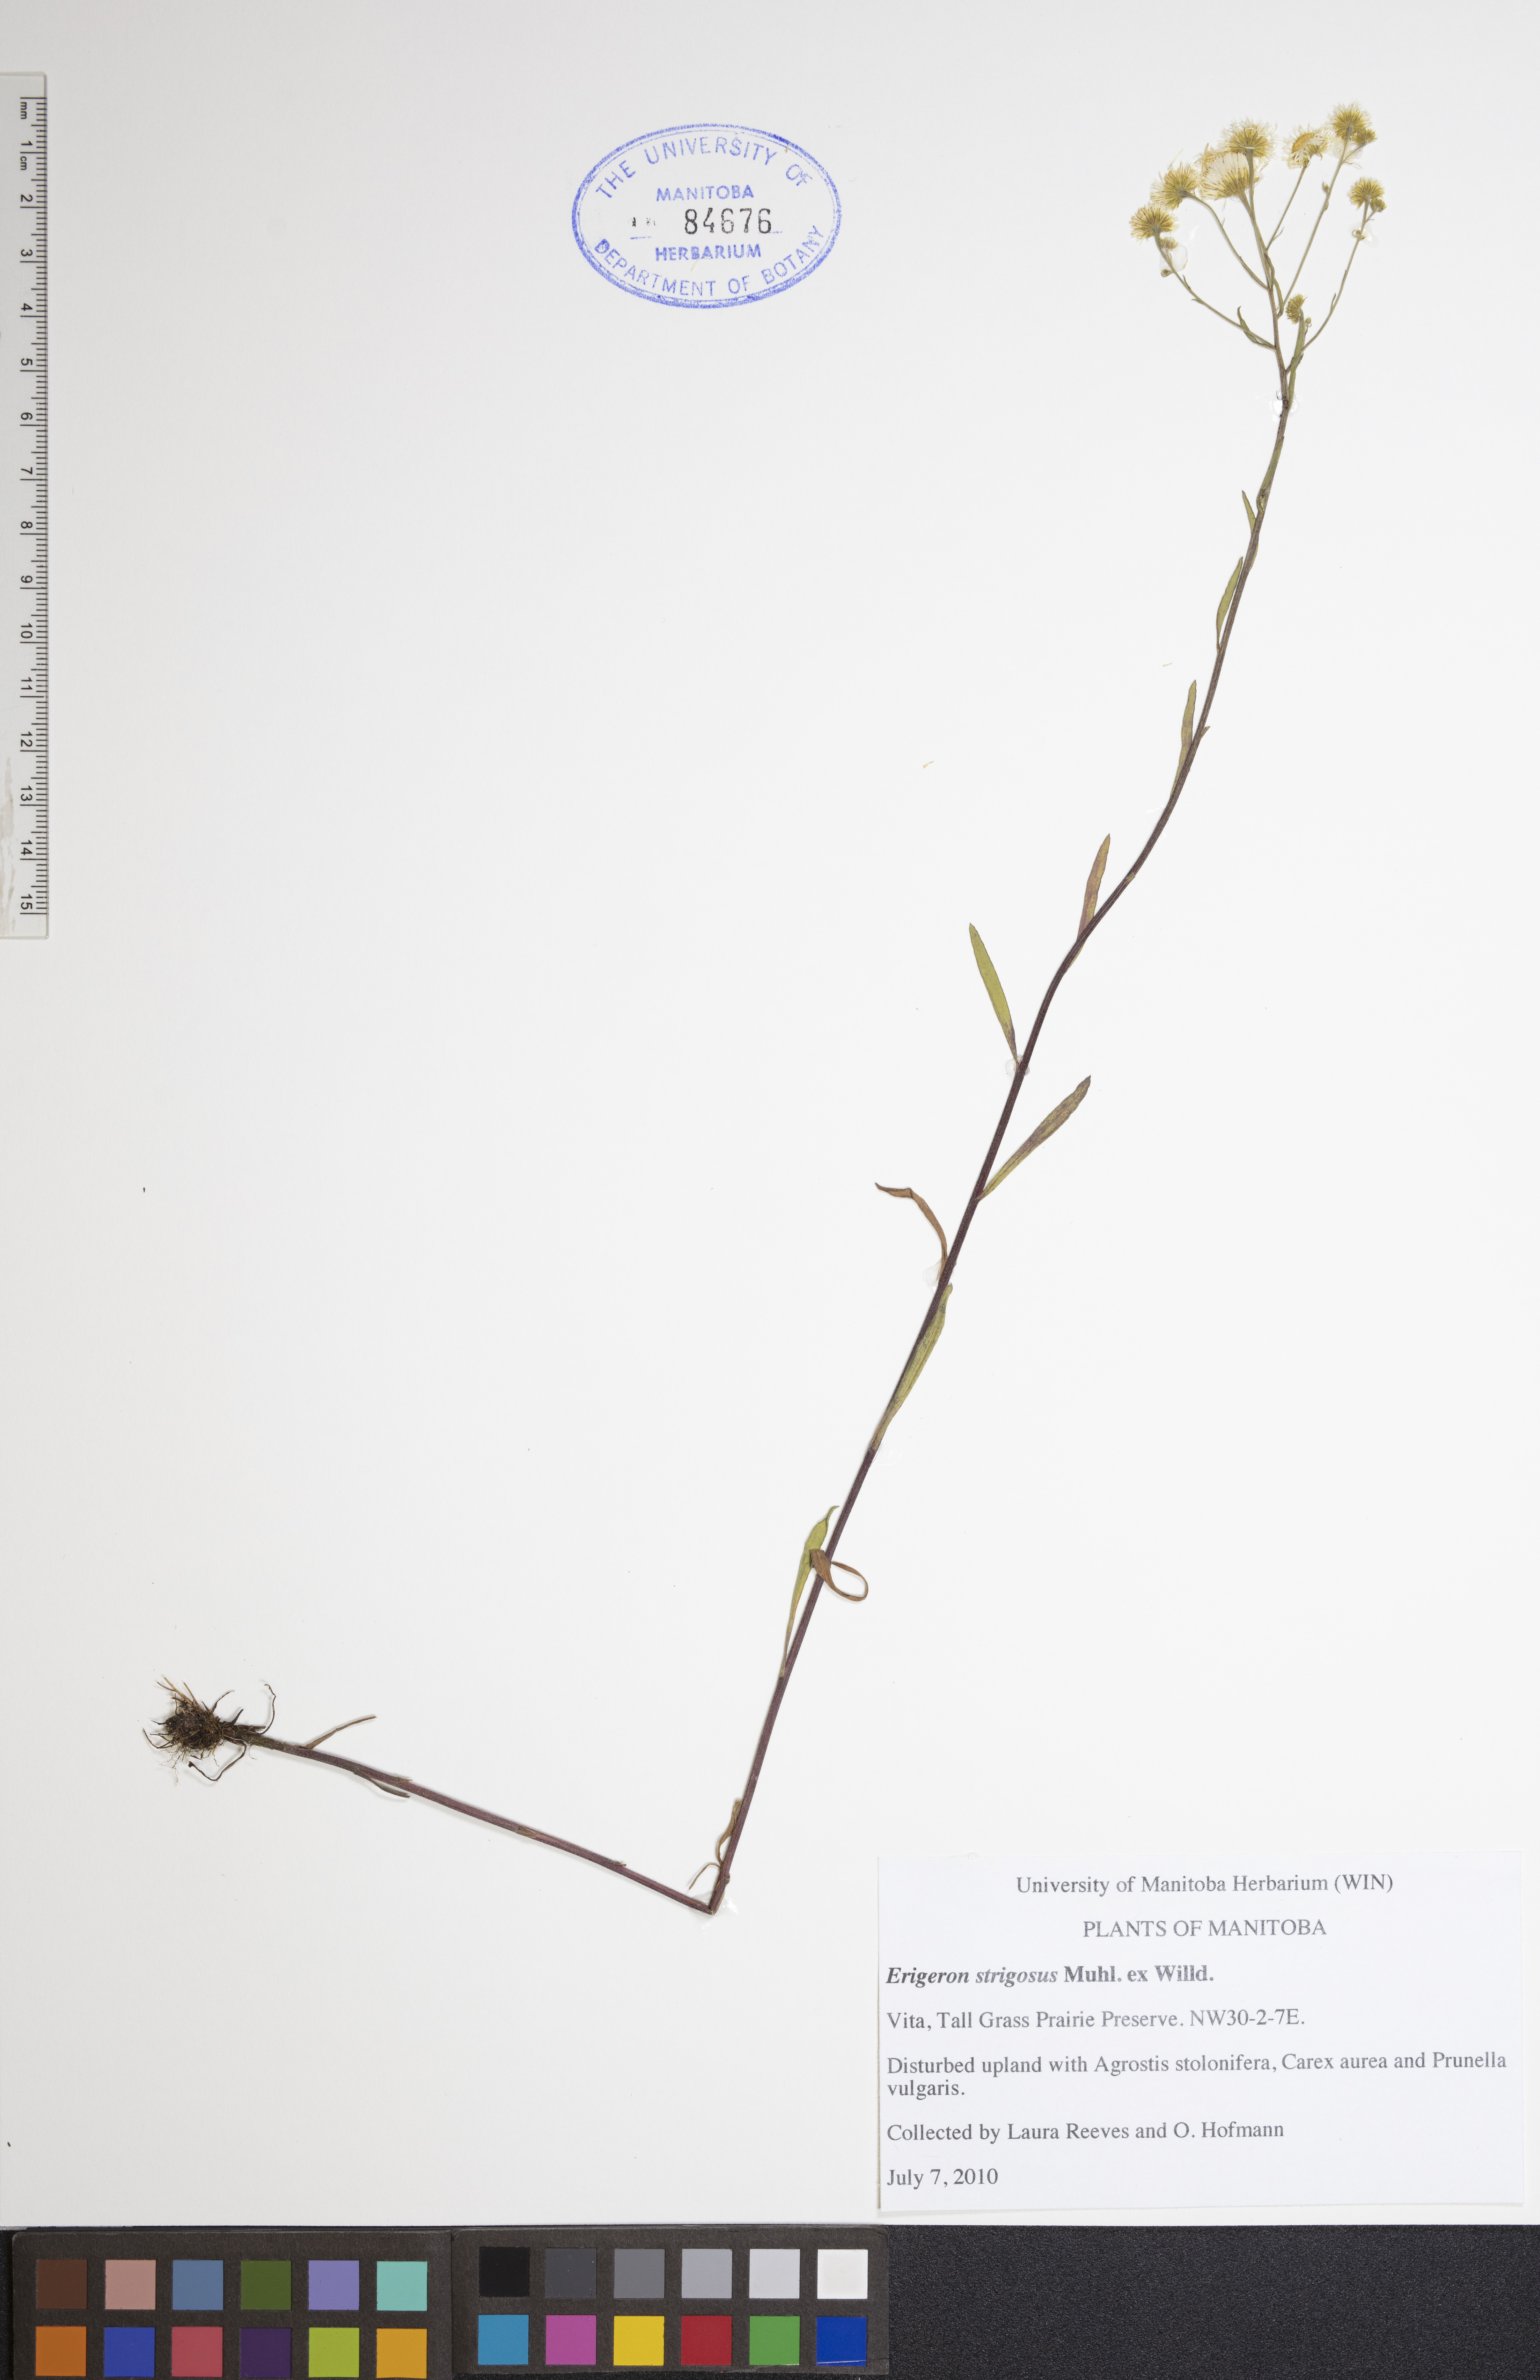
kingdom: Plantae
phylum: Tracheophyta
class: Magnoliopsida
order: Asterales
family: Asteraceae
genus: Erigeron
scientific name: Erigeron strigosus
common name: Common eastern fleabane
